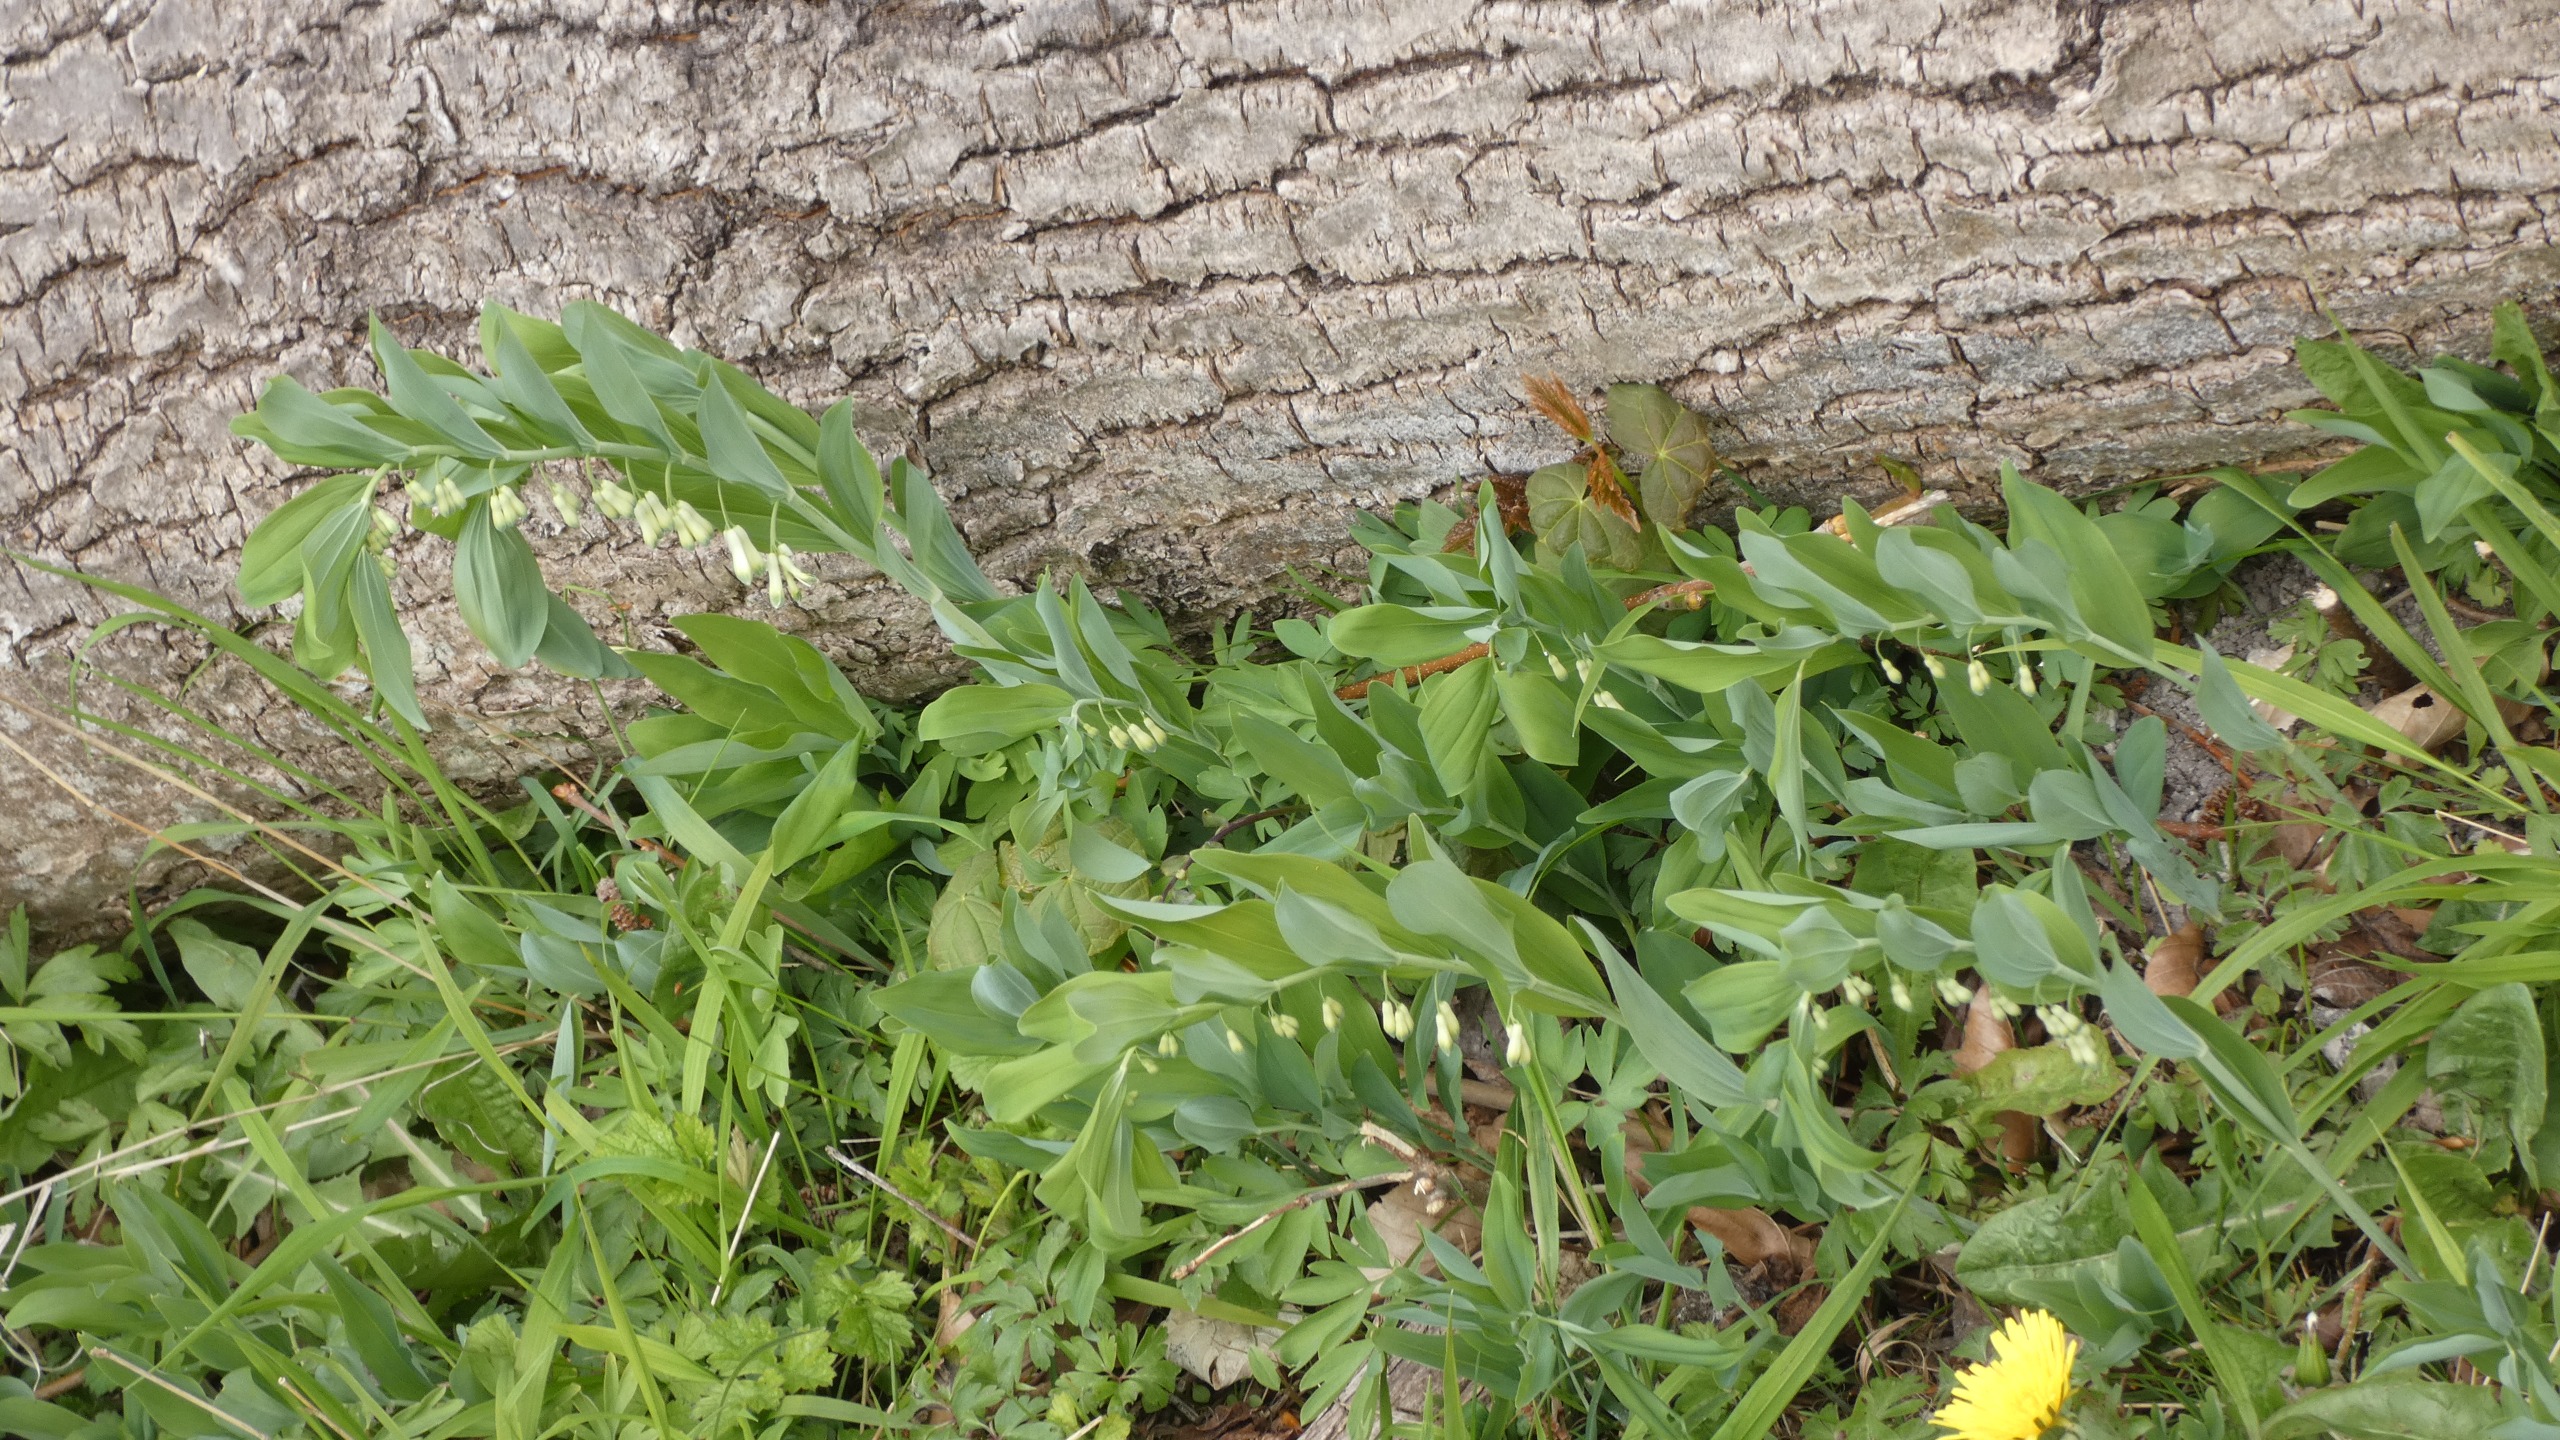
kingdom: Plantae
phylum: Tracheophyta
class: Liliopsida
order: Asparagales
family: Asparagaceae
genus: Polygonatum
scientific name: Polygonatum multiflorum
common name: Stor konval
